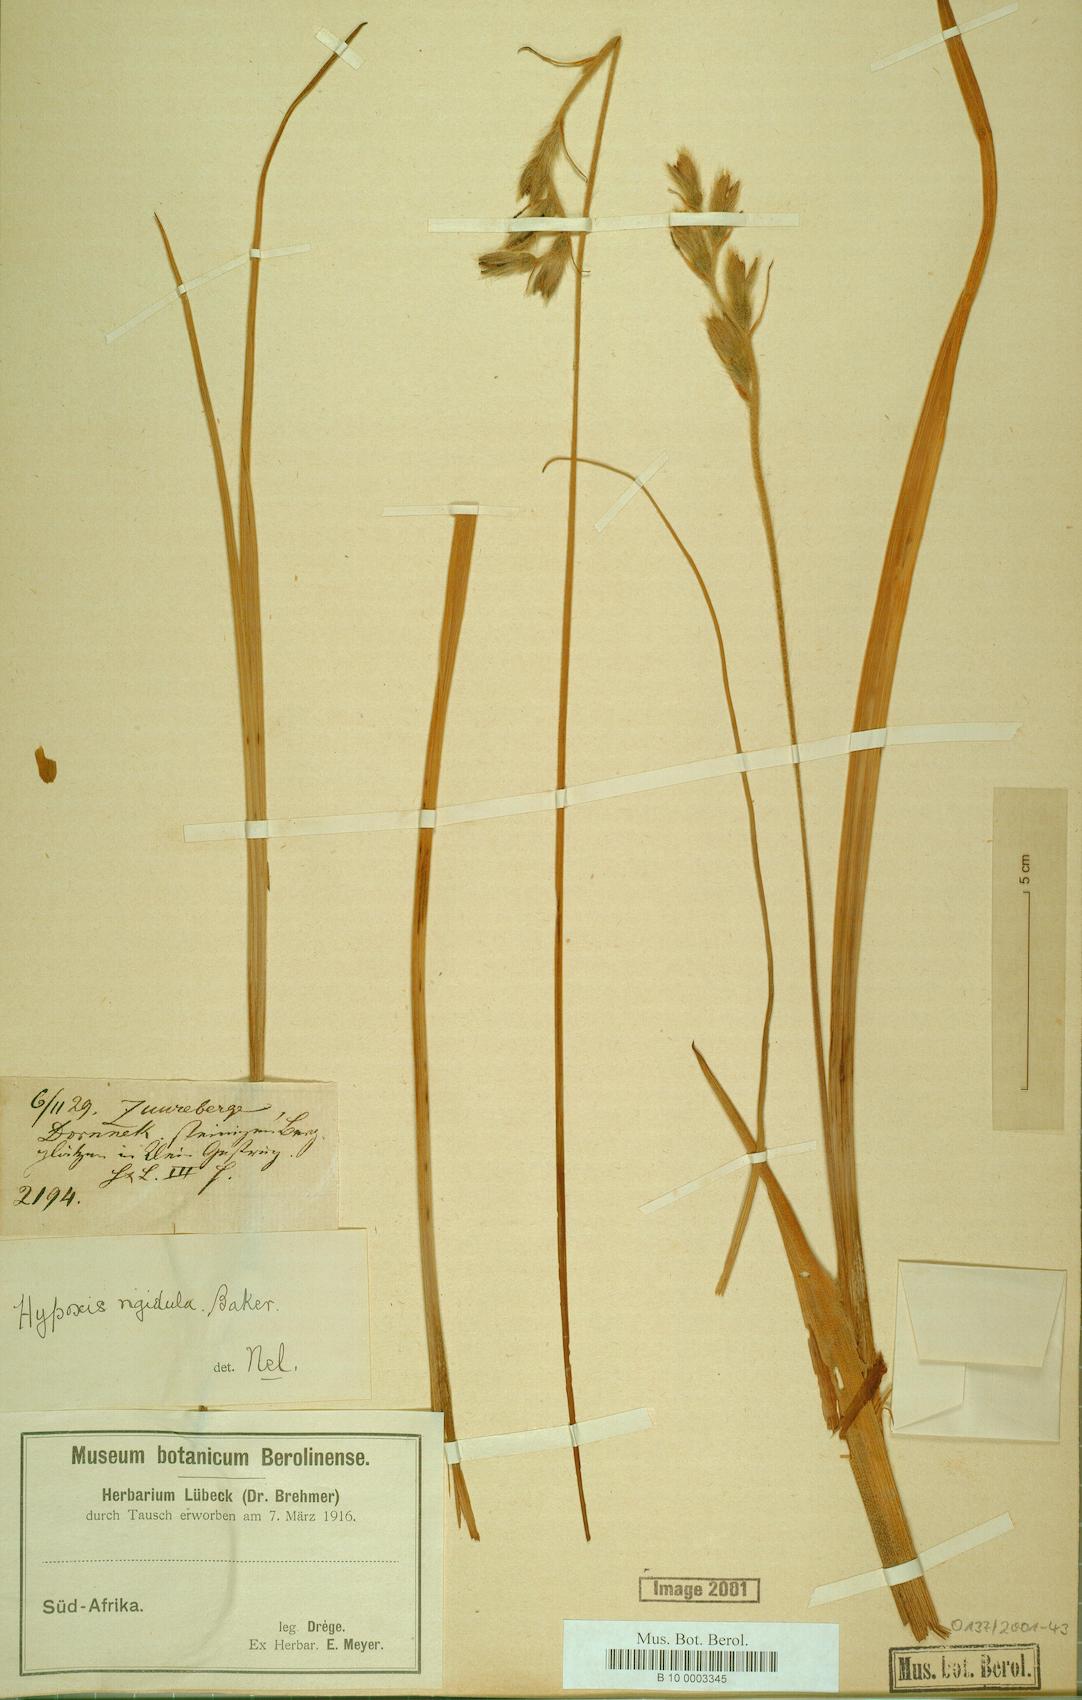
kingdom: Plantae
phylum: Tracheophyta
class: Liliopsida
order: Asparagales
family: Hypoxidaceae
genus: Hypoxis
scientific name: Hypoxis rigidula
